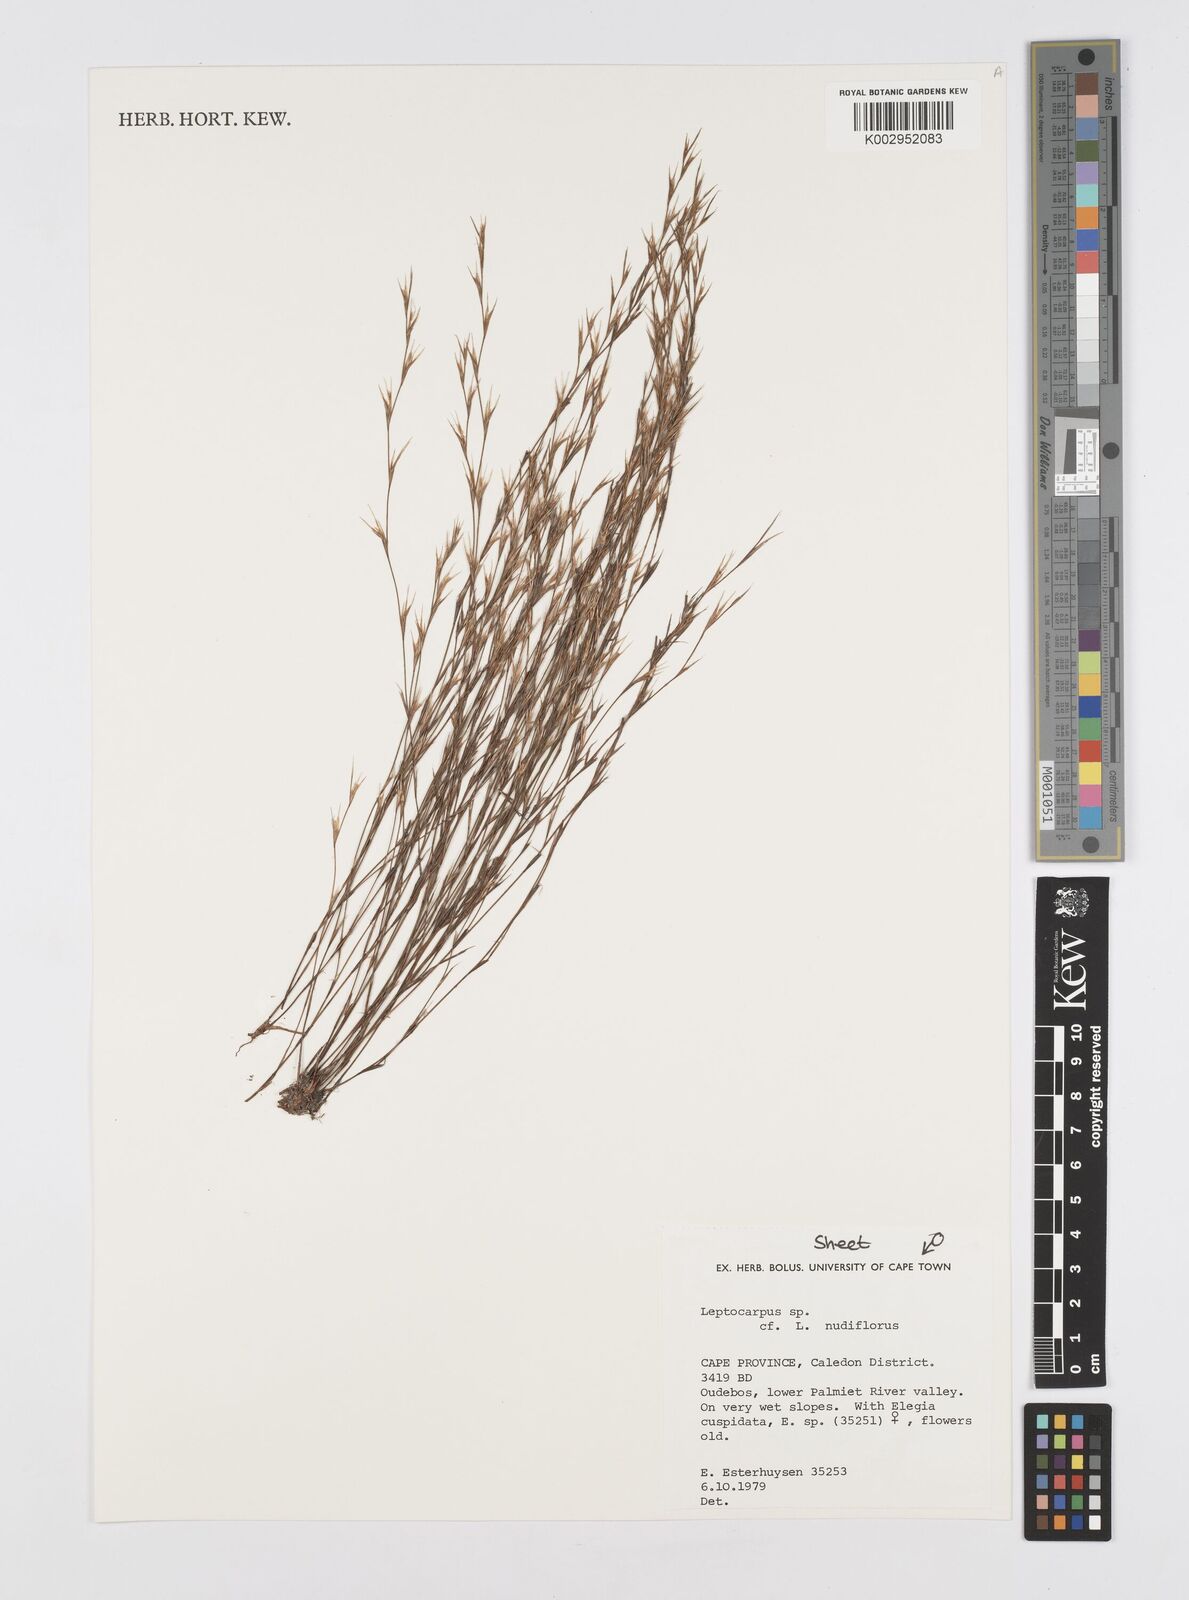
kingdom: Plantae
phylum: Tracheophyta
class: Liliopsida
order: Poales
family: Restionaceae
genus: Restio
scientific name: Restio nudiflorus
